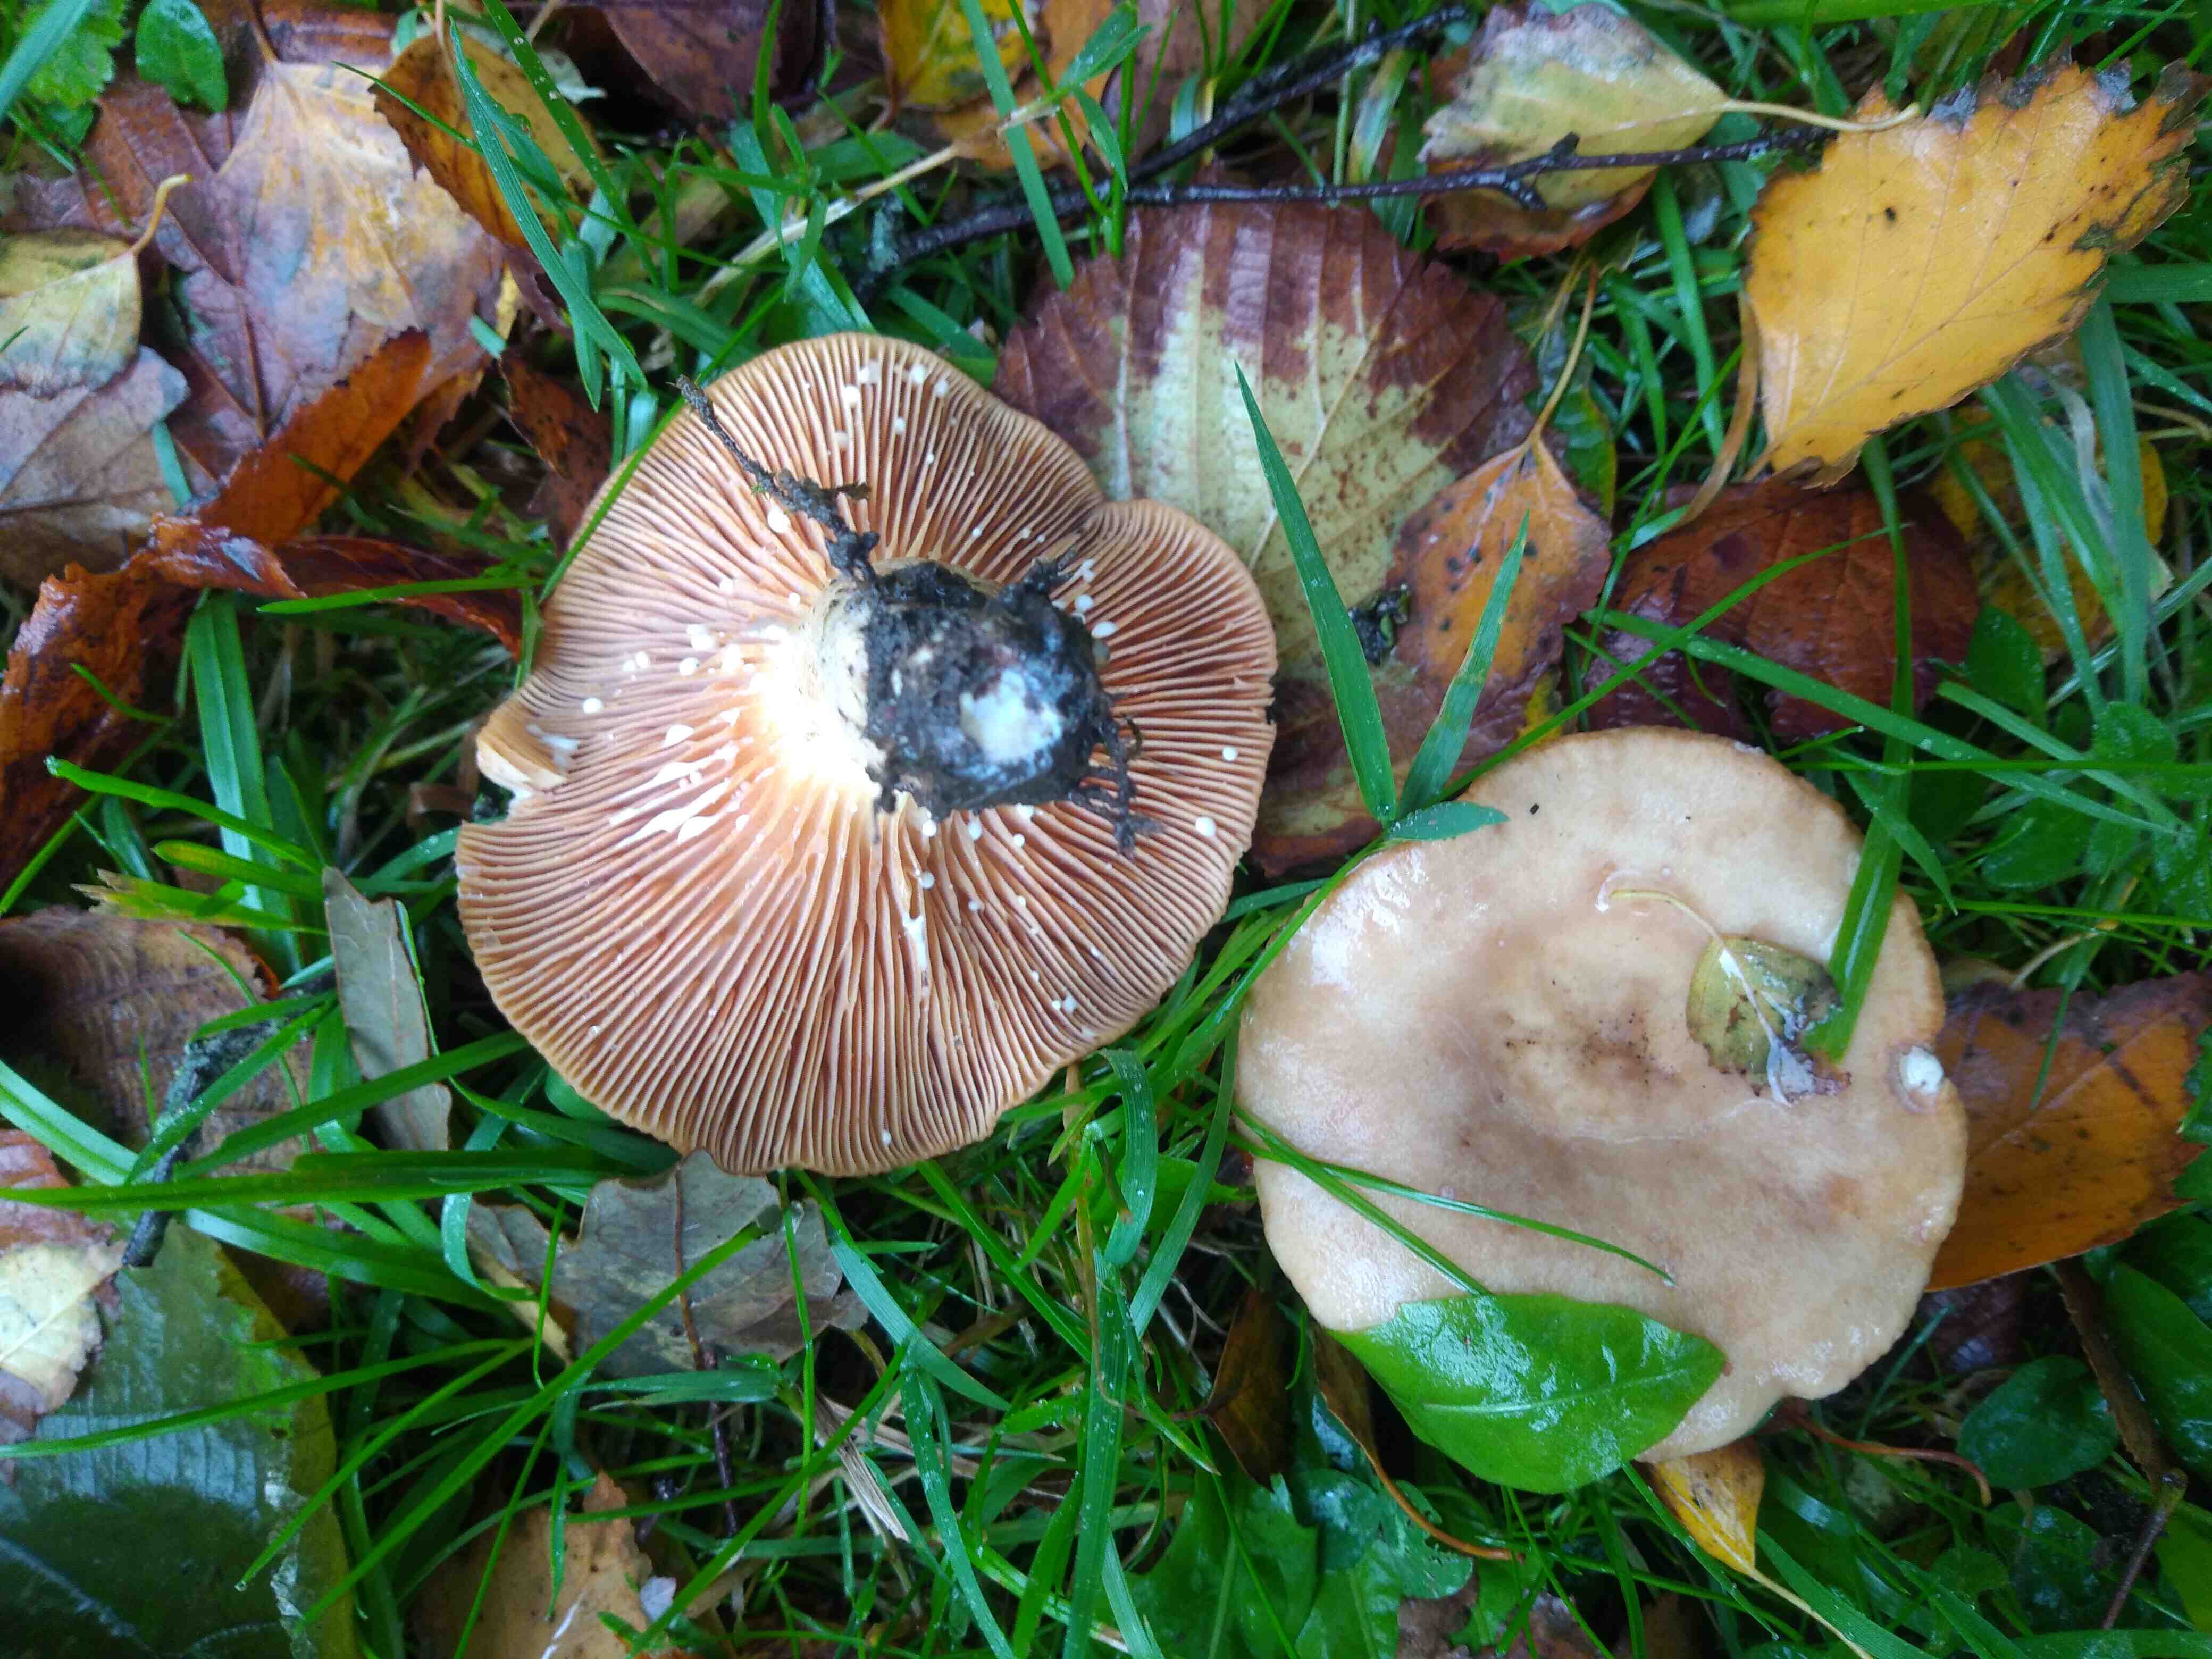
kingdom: Fungi
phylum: Basidiomycota
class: Agaricomycetes
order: Russulales
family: Russulaceae
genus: Lactarius
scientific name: Lactarius pyrogalus
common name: hassel-mælkehat
